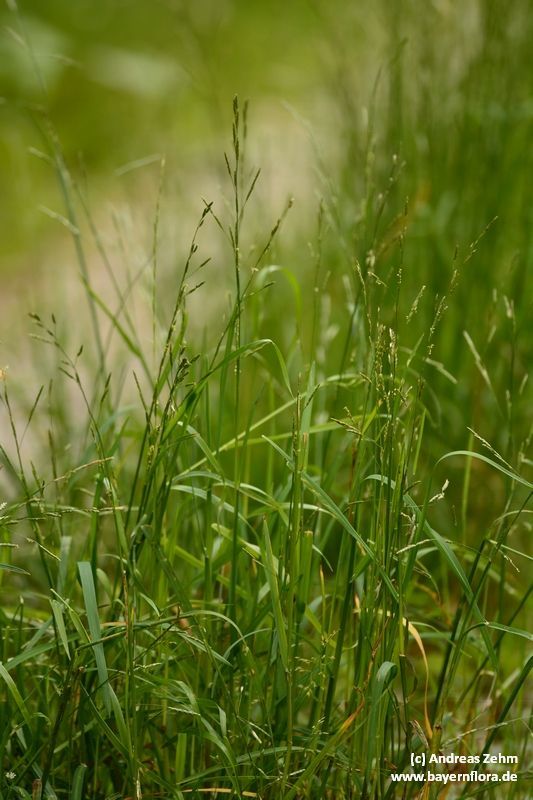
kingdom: Plantae
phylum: Tracheophyta
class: Liliopsida
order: Poales
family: Poaceae
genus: Glyceria
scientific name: Glyceria notata
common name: Plicate sweet-grass
